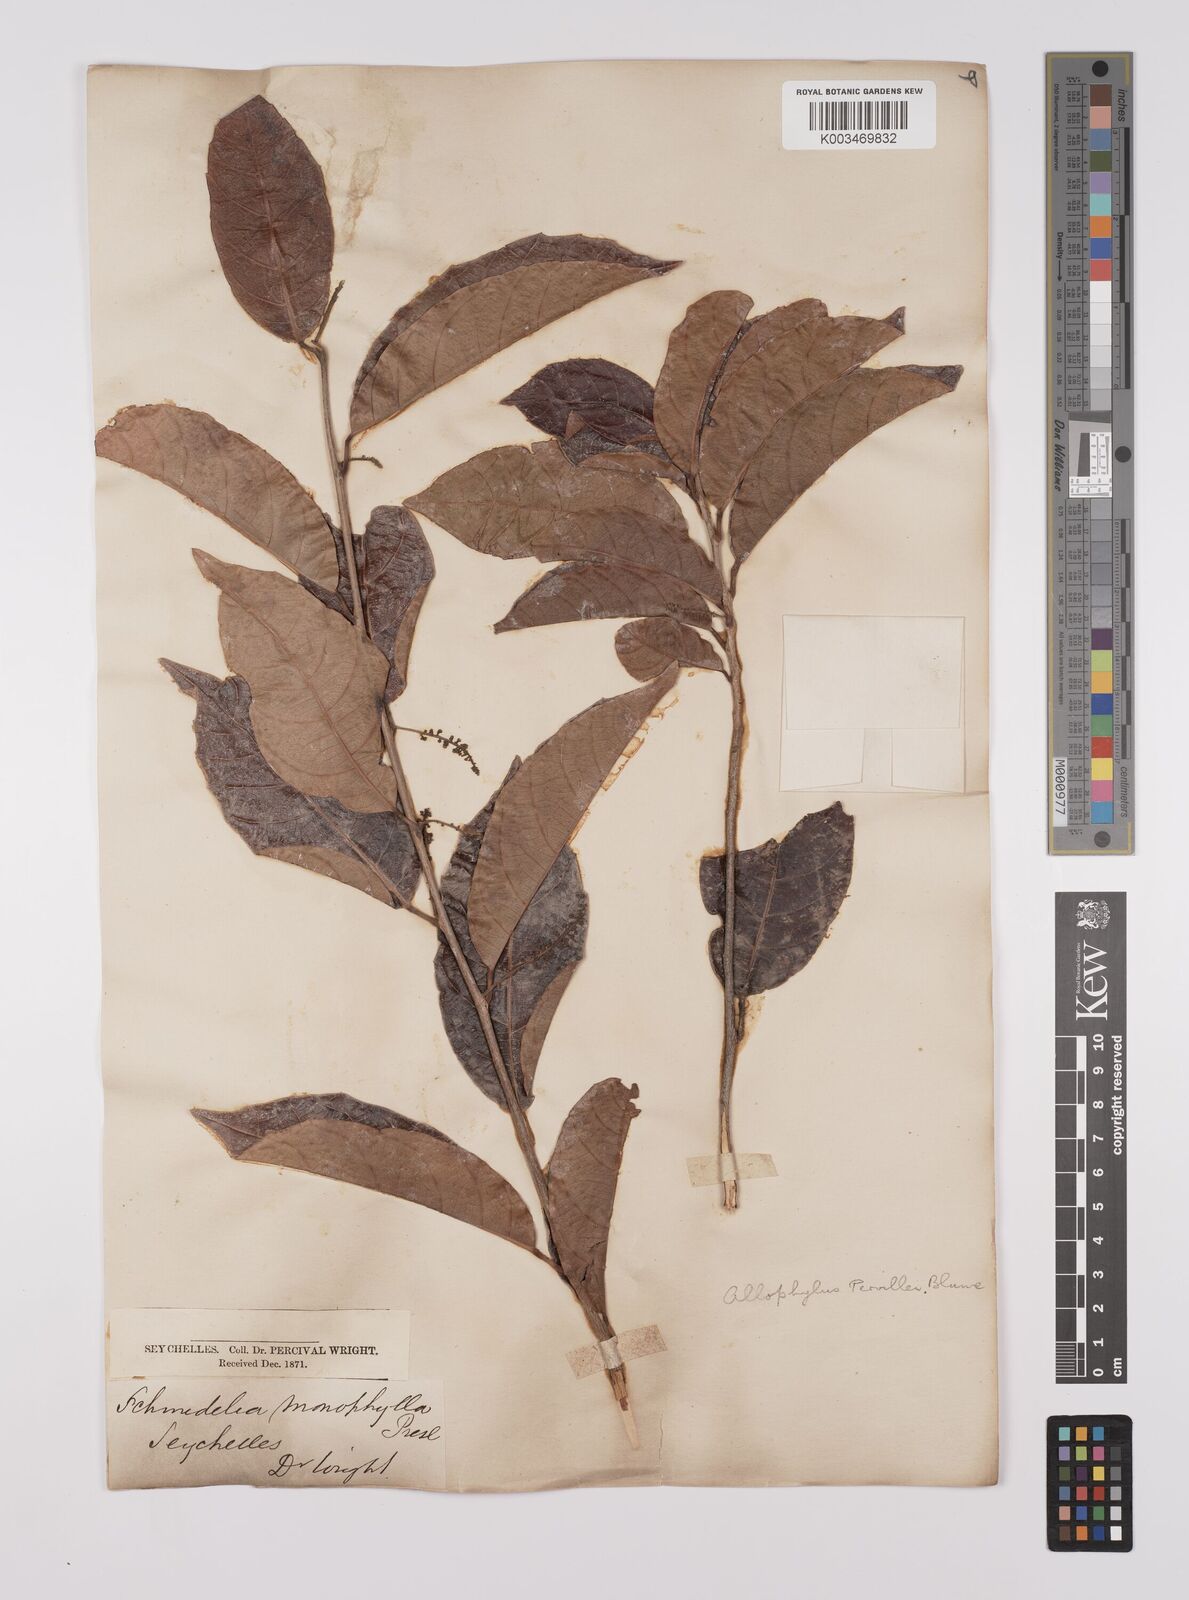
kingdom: Plantae
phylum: Tracheophyta
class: Magnoliopsida
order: Sapindales
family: Sapindaceae
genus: Allophylus
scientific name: Allophylus pervillei
